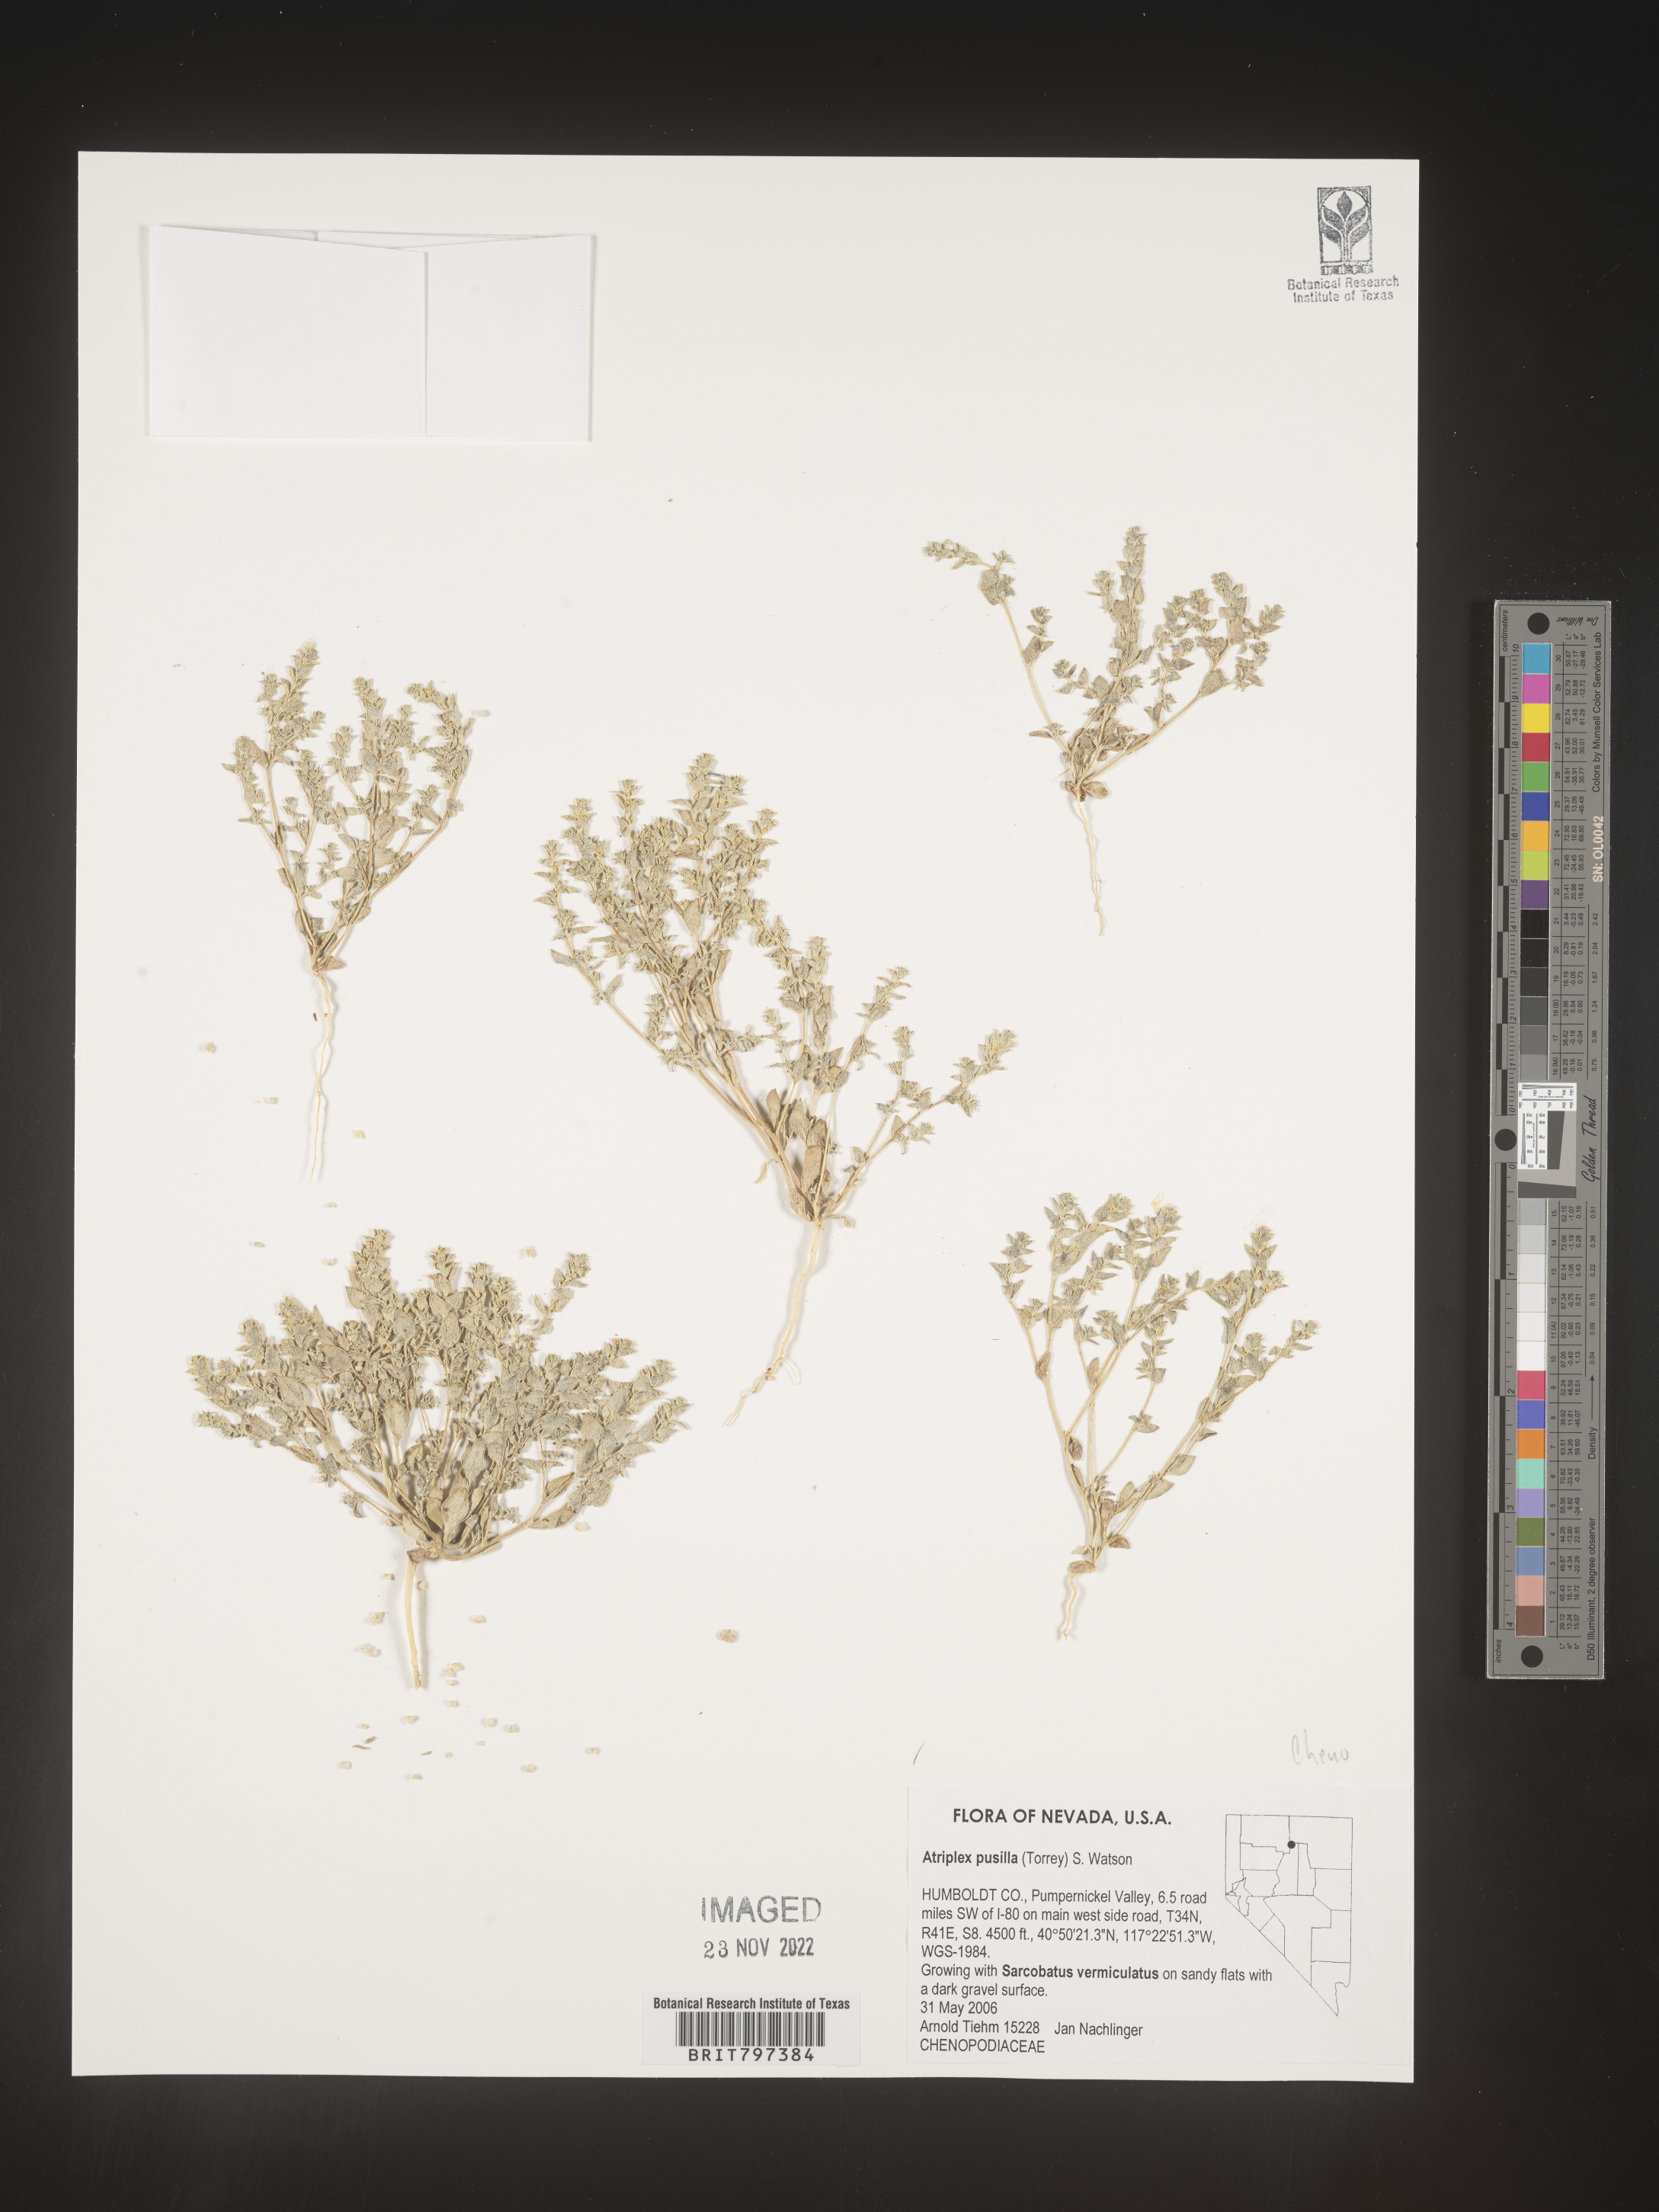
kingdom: Plantae
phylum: Tracheophyta
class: Magnoliopsida
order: Caryophyllales
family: Amaranthaceae
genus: Atriplex
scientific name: Atriplex pusilla
